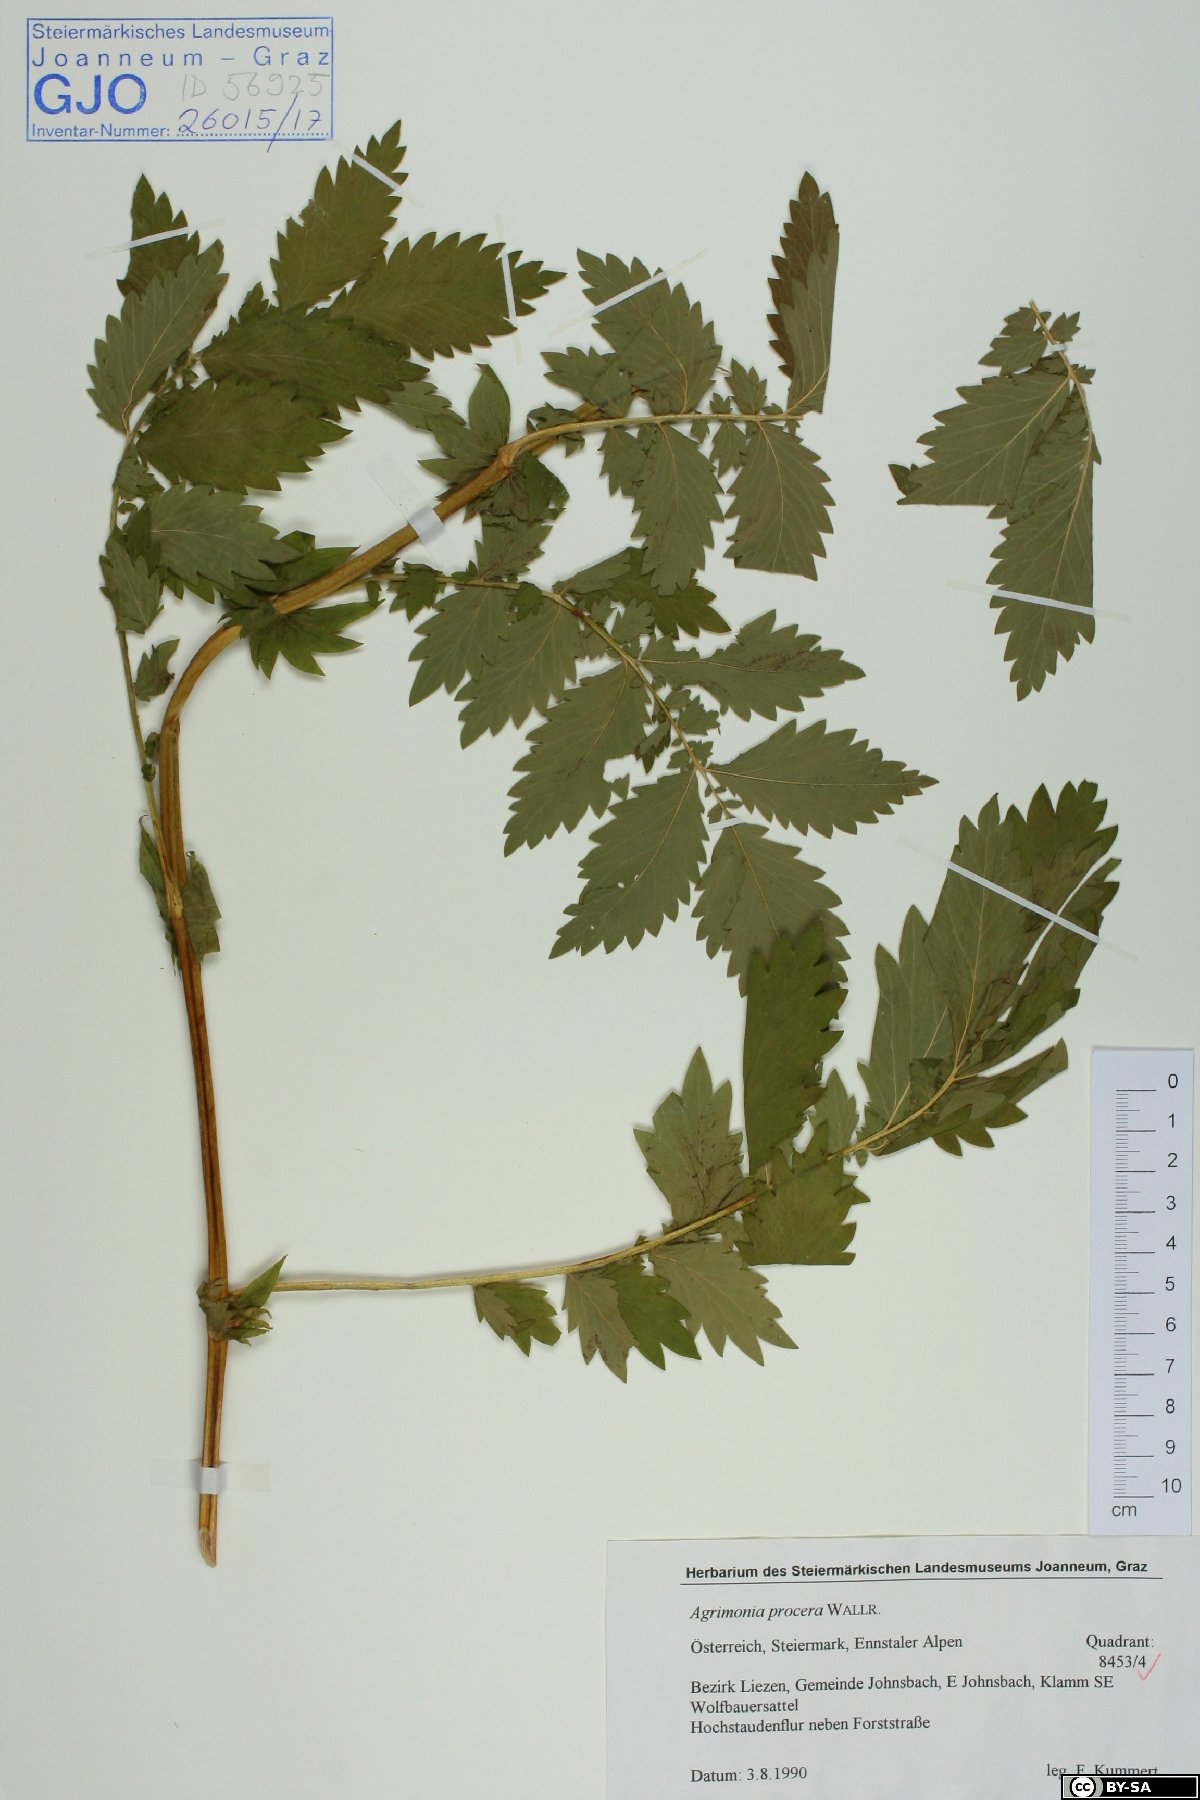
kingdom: Plantae
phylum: Tracheophyta
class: Magnoliopsida
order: Rosales
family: Rosaceae
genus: Agrimonia
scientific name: Agrimonia procera
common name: Fragrant agrimony
